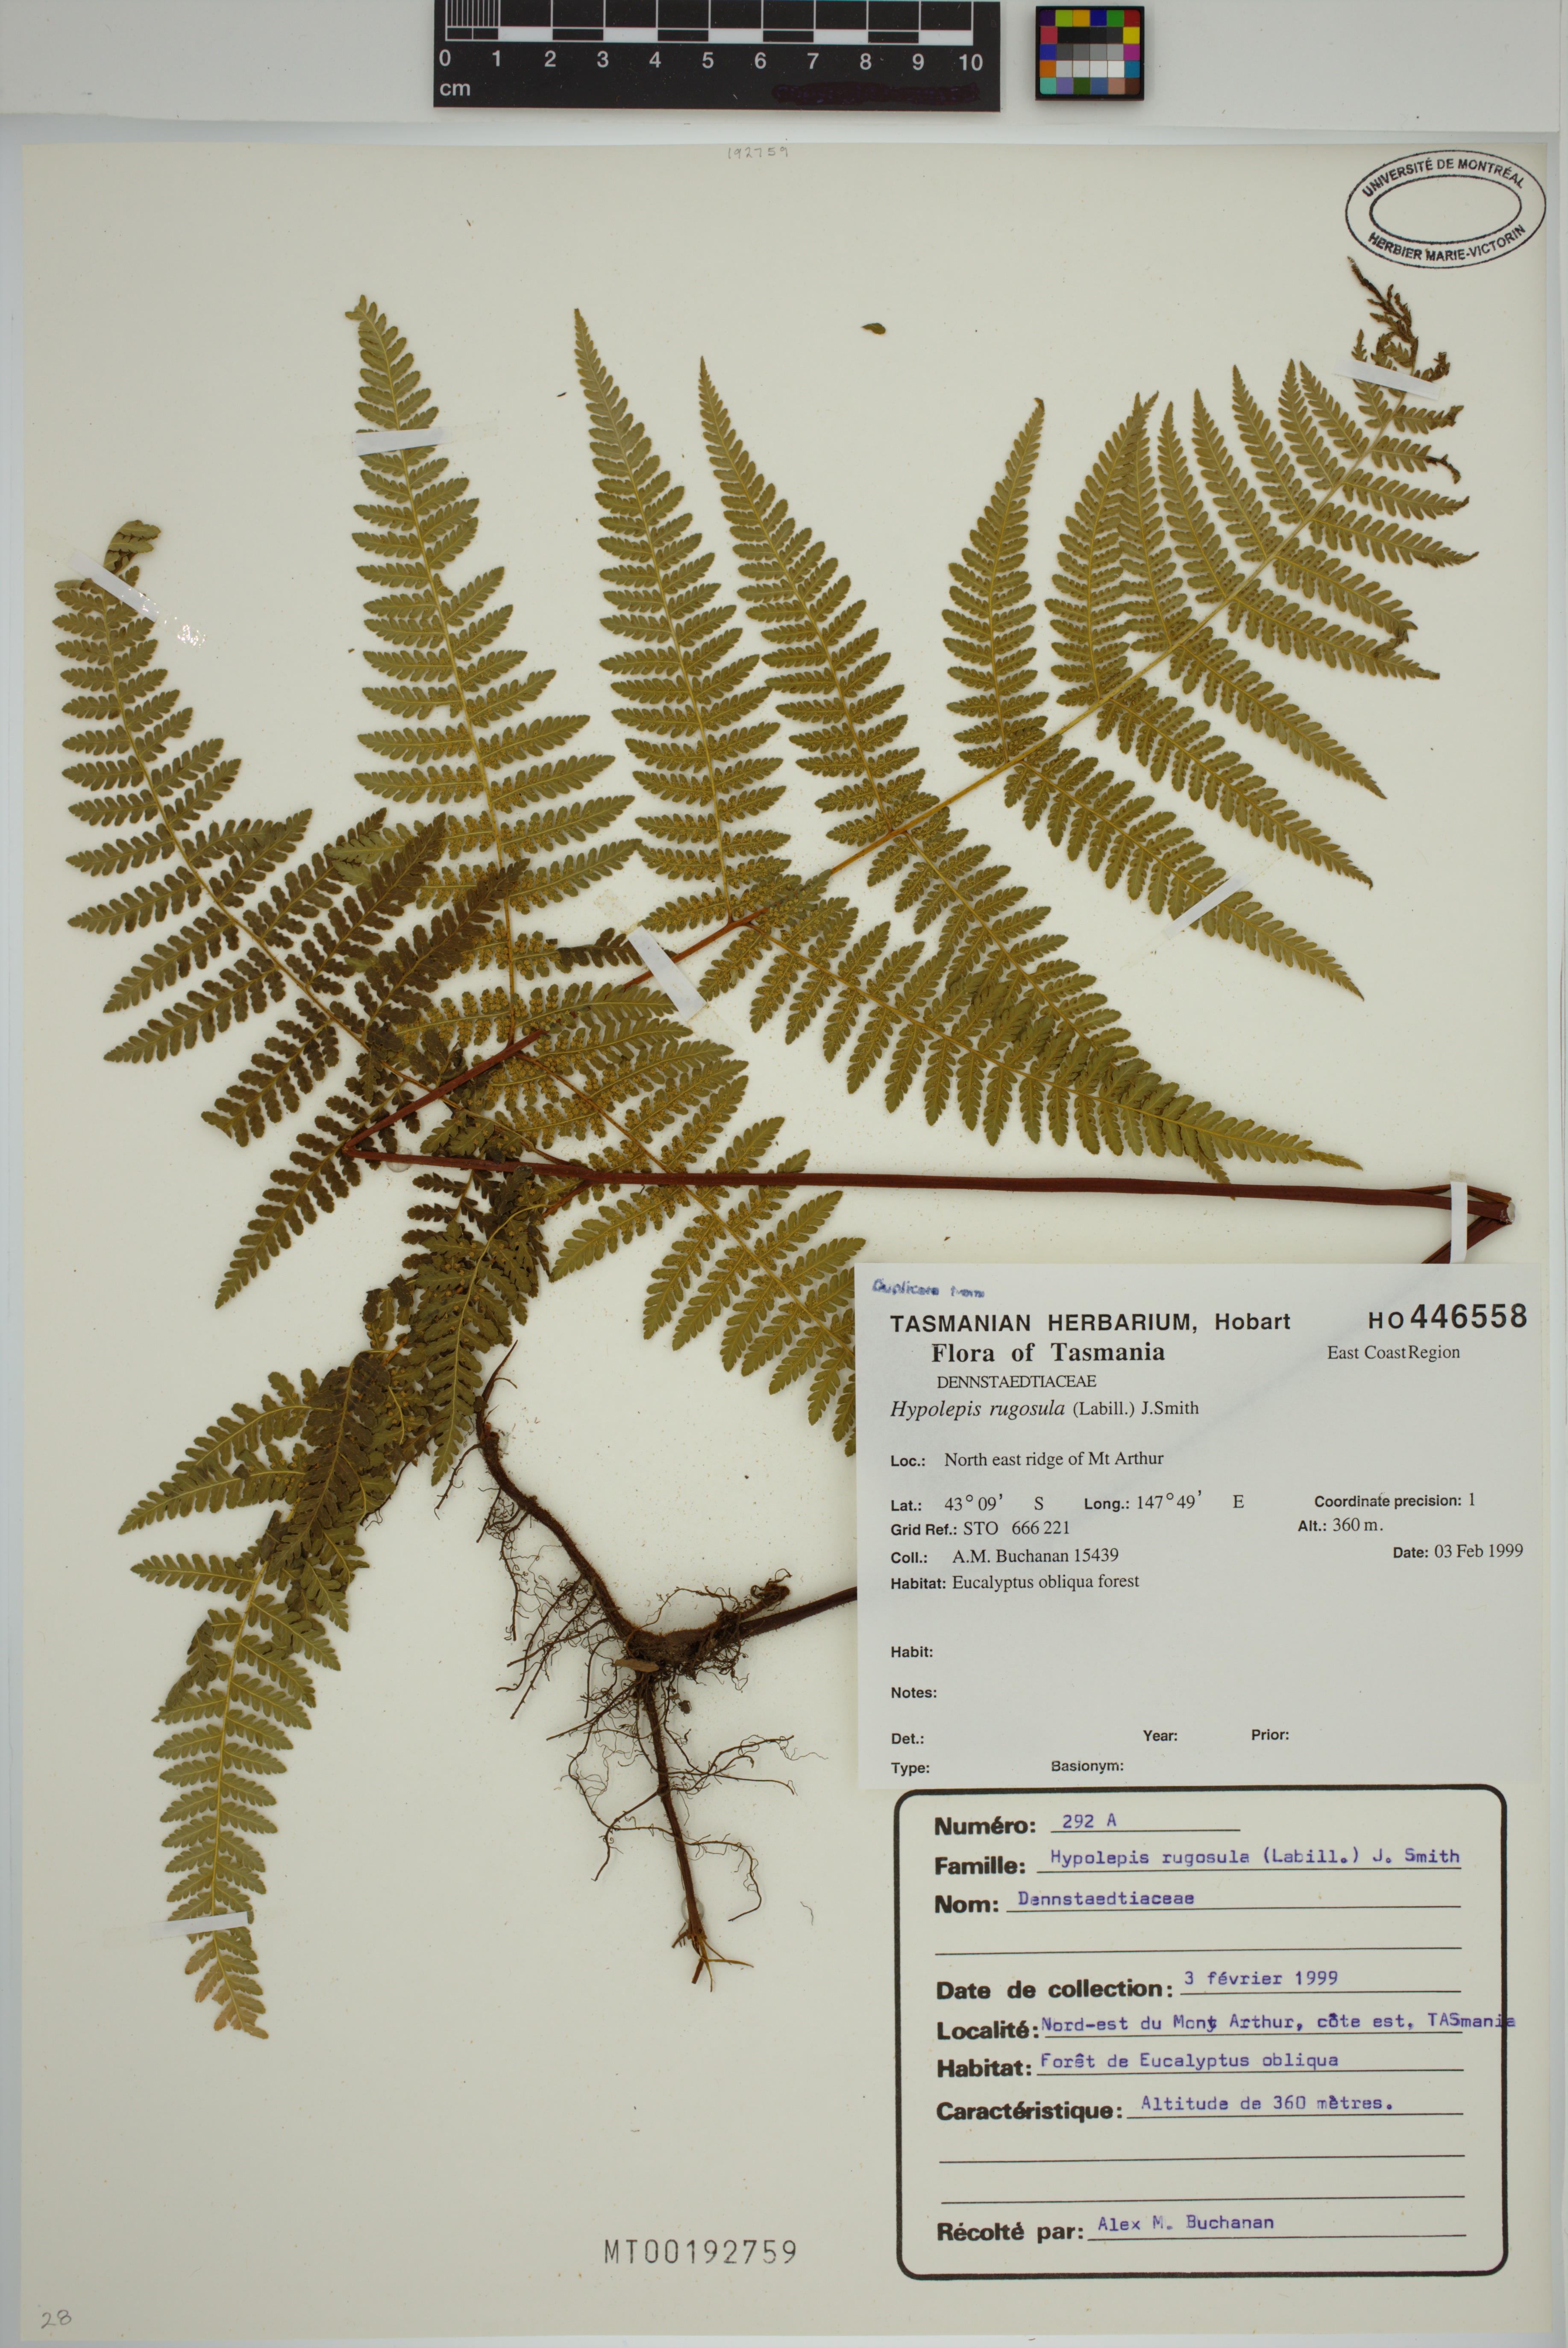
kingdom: Plantae
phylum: Tracheophyta
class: Polypodiopsida
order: Polypodiales
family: Dennstaedtiaceae
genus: Hypolepis
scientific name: Hypolepis rugosula
